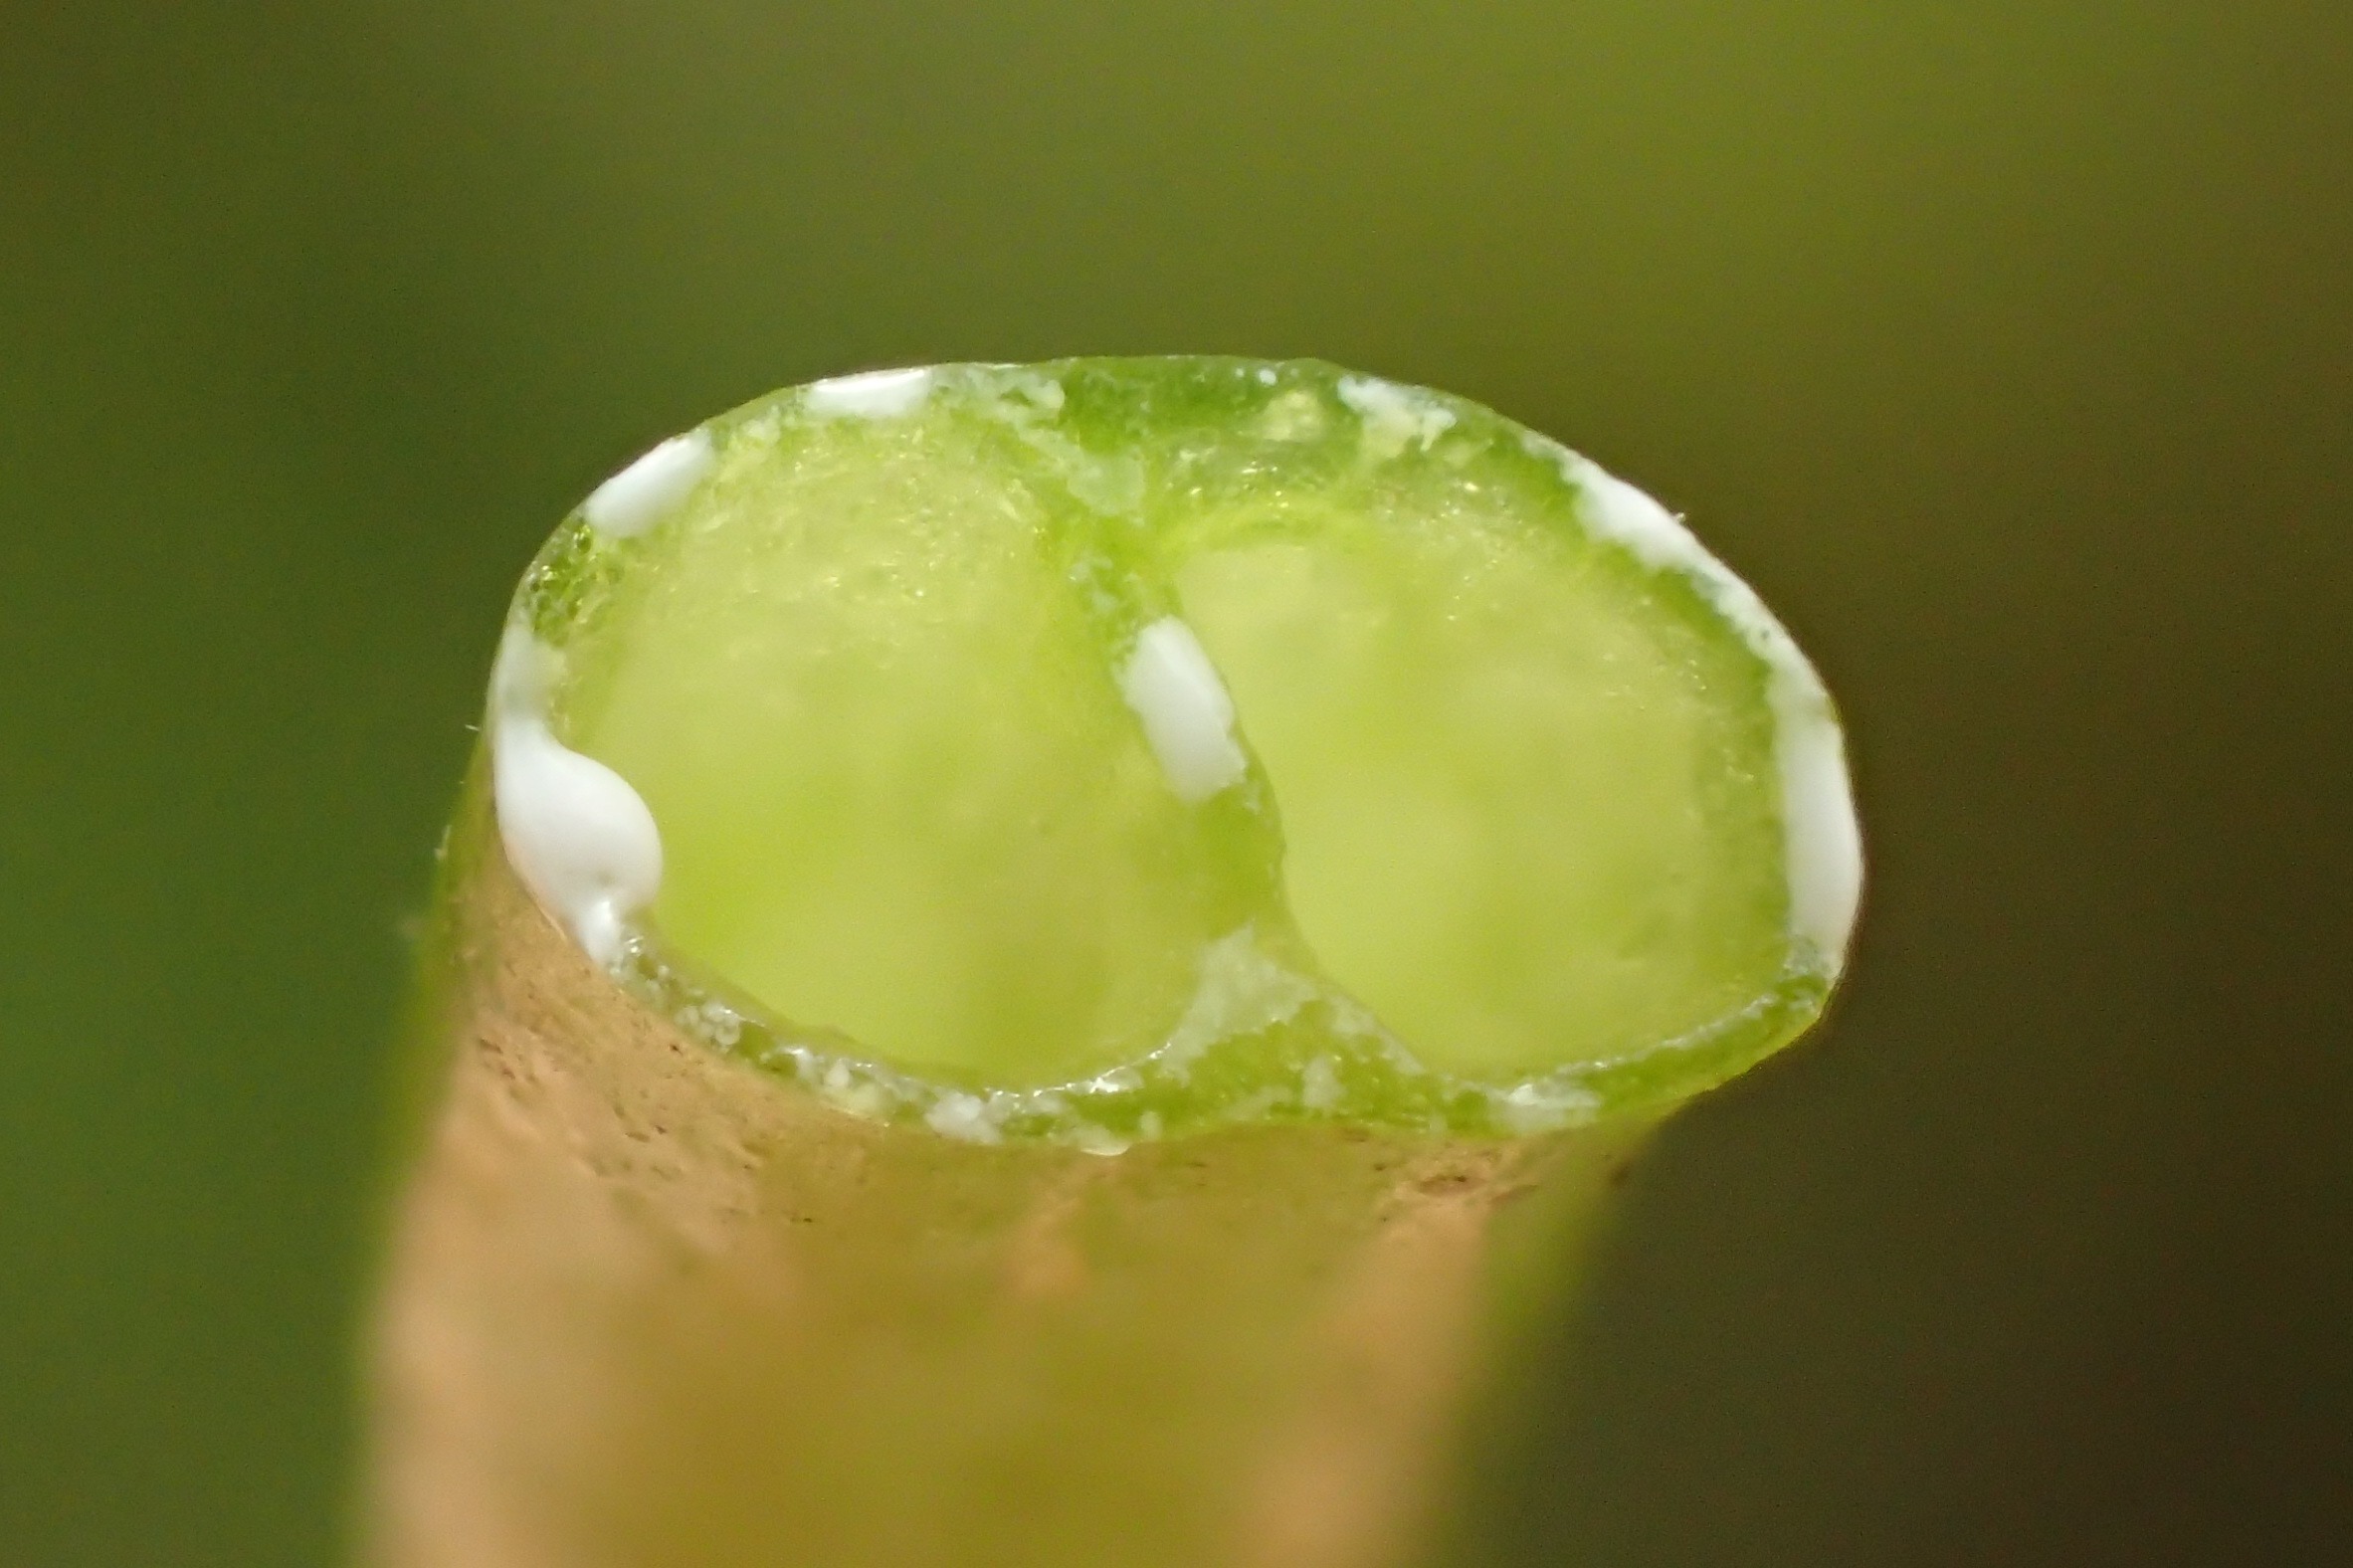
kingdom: Plantae
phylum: Tracheophyta
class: Magnoliopsida
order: Asterales
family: Campanulaceae
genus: Lobelia
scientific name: Lobelia dortmanna
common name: Tvepibet lobelie
